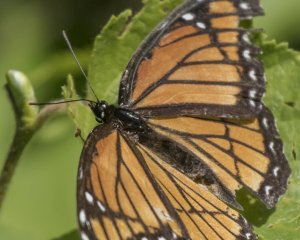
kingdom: Animalia
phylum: Arthropoda
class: Insecta
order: Lepidoptera
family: Nymphalidae
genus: Limenitis
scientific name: Limenitis archippus
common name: Viceroy
